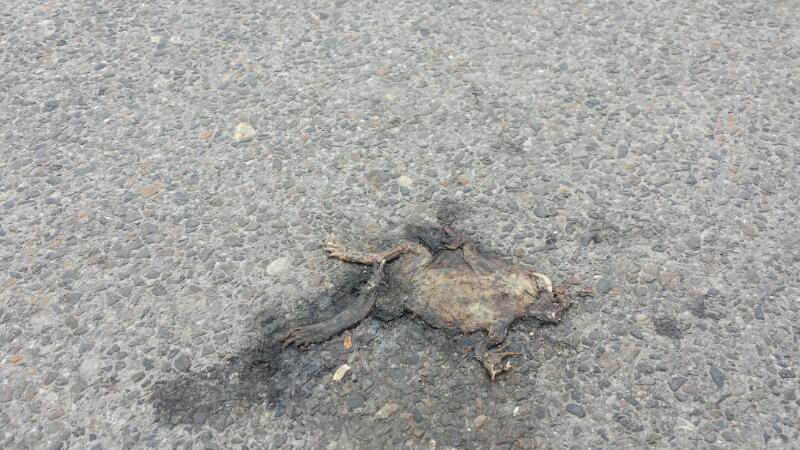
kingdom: Animalia
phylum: Chordata
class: Amphibia
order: Anura
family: Bufonidae
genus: Bufo
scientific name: Bufo bufo
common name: Common toad
